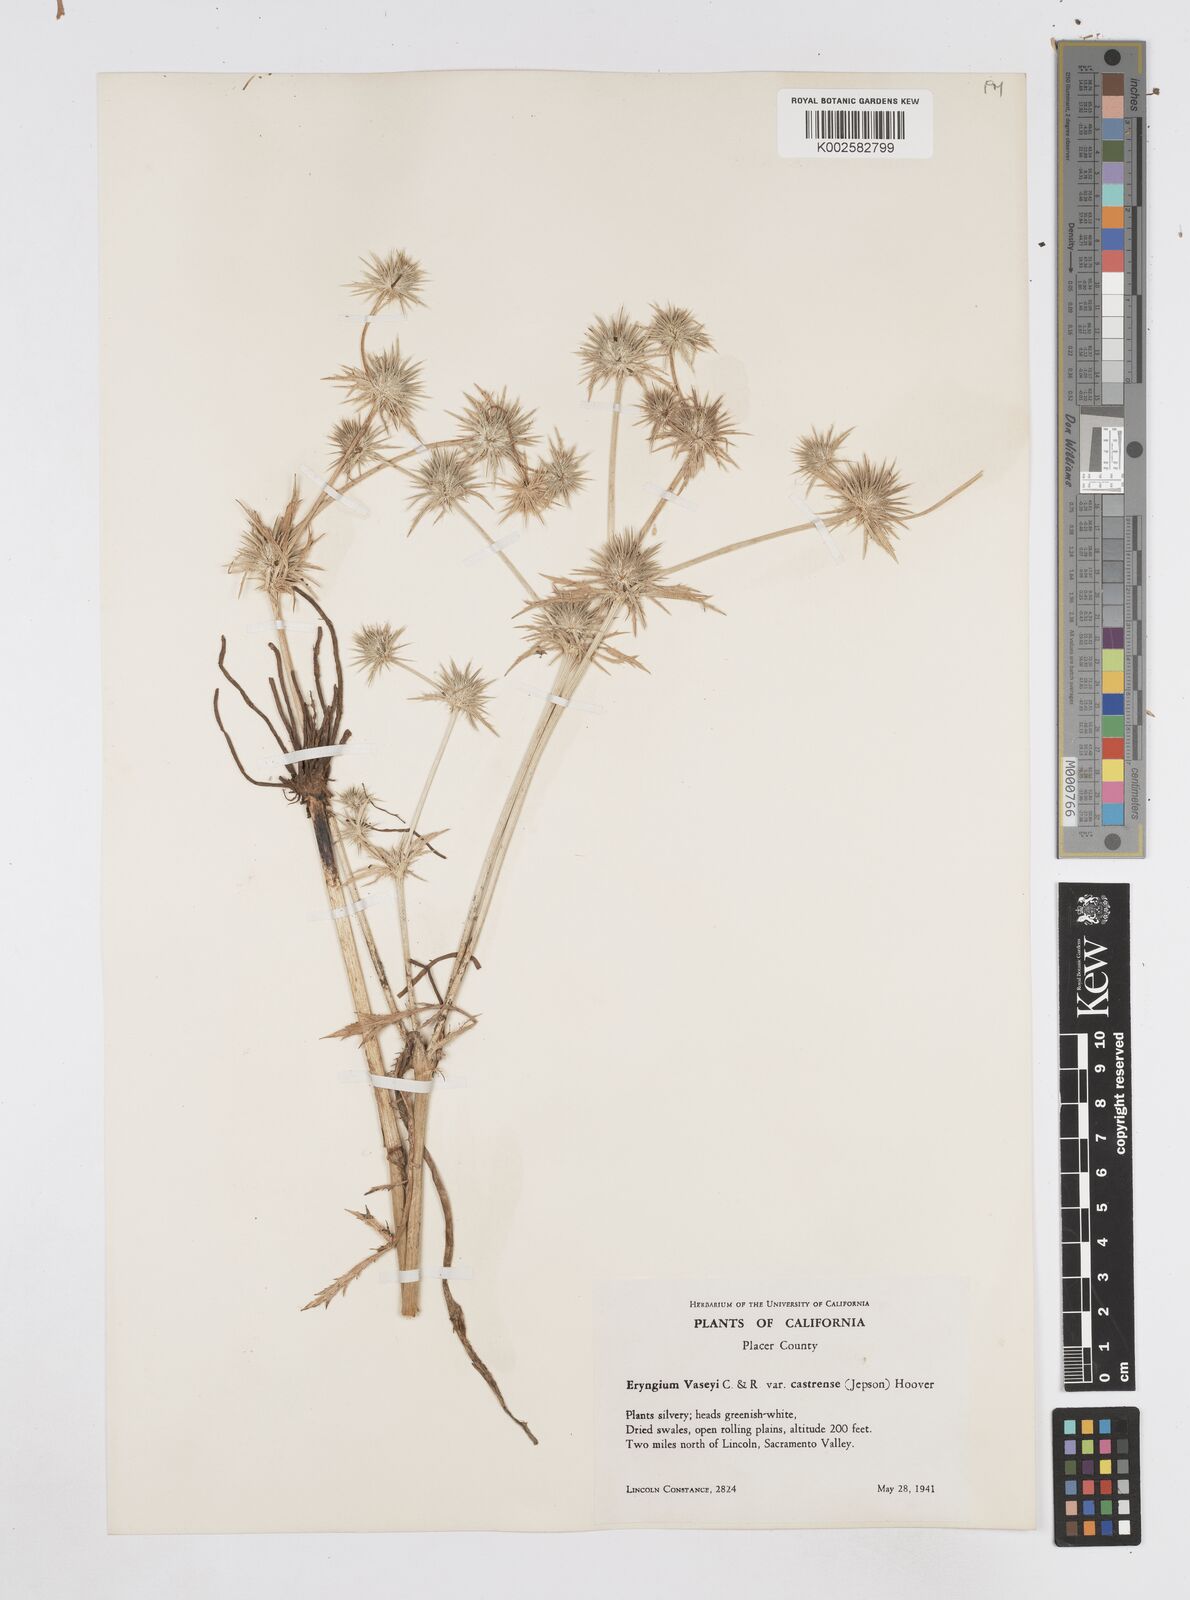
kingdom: Plantae
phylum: Tracheophyta
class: Magnoliopsida
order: Apiales
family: Apiaceae
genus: Eryngium
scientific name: Eryngium castrense
